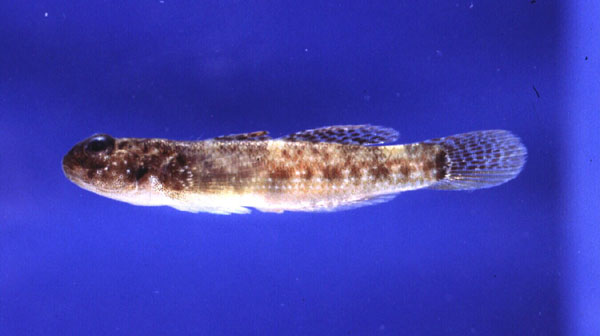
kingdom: Animalia
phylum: Chordata
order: Perciformes
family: Gobiidae
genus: Caffrogobius
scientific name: Caffrogobius natalensis
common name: Baldy
